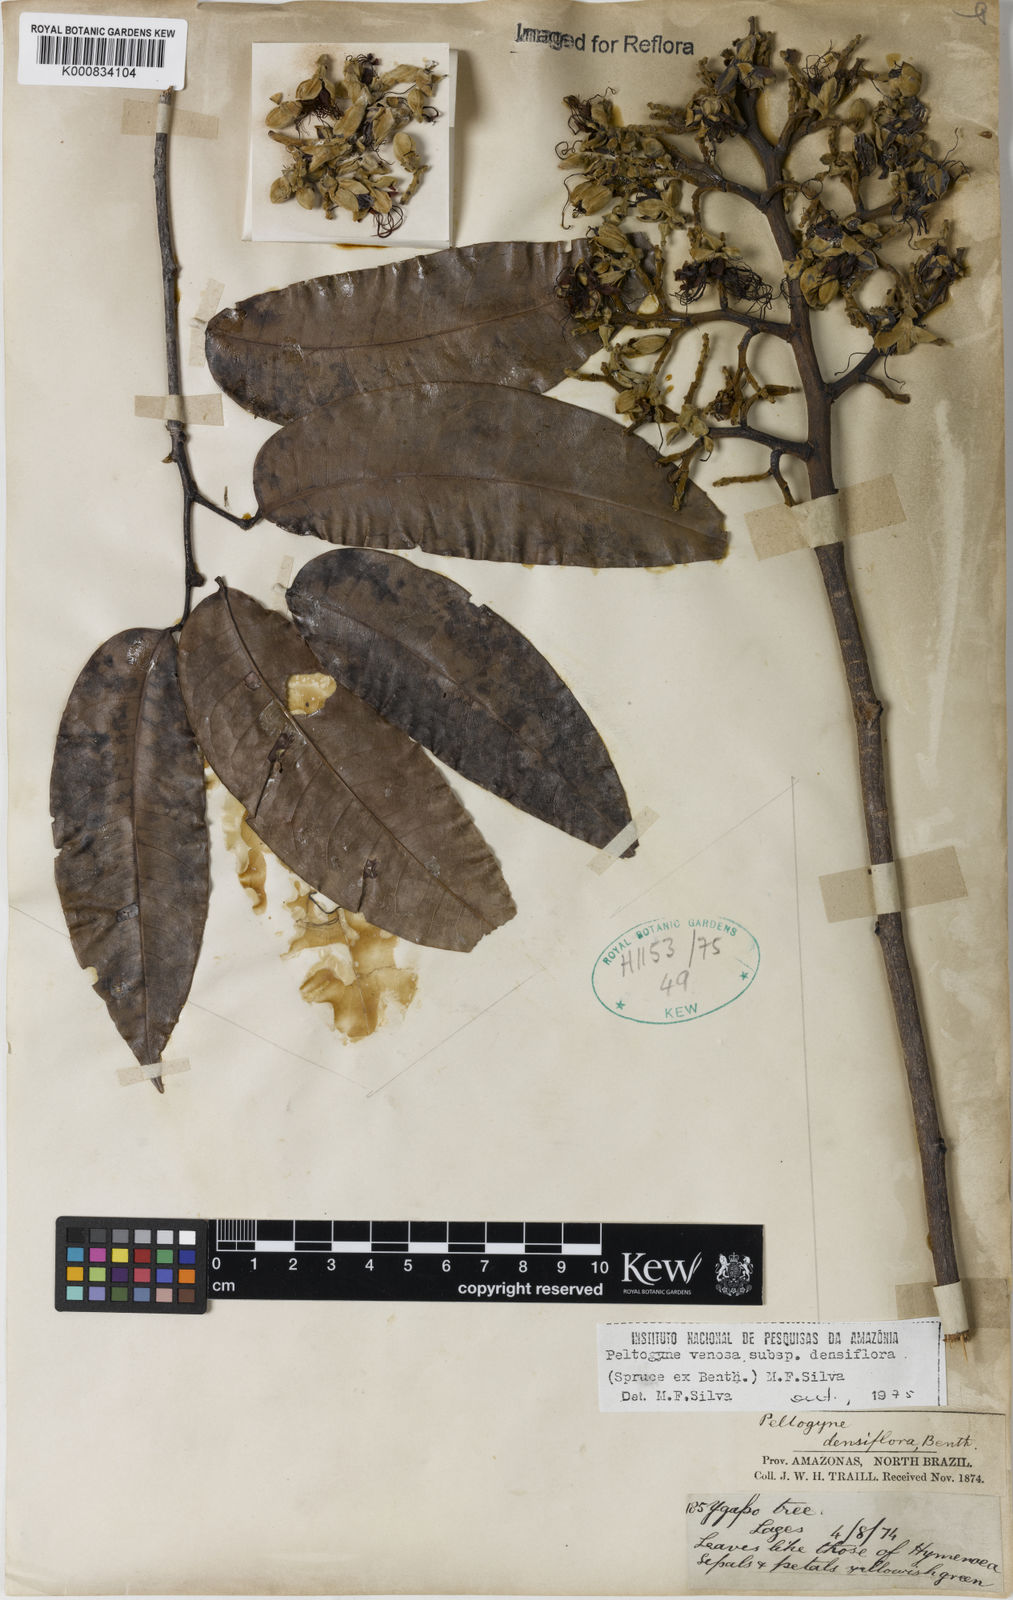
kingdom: Plantae
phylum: Tracheophyta
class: Magnoliopsida
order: Fabales
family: Fabaceae
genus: Peltogyne
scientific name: Peltogyne venosa
